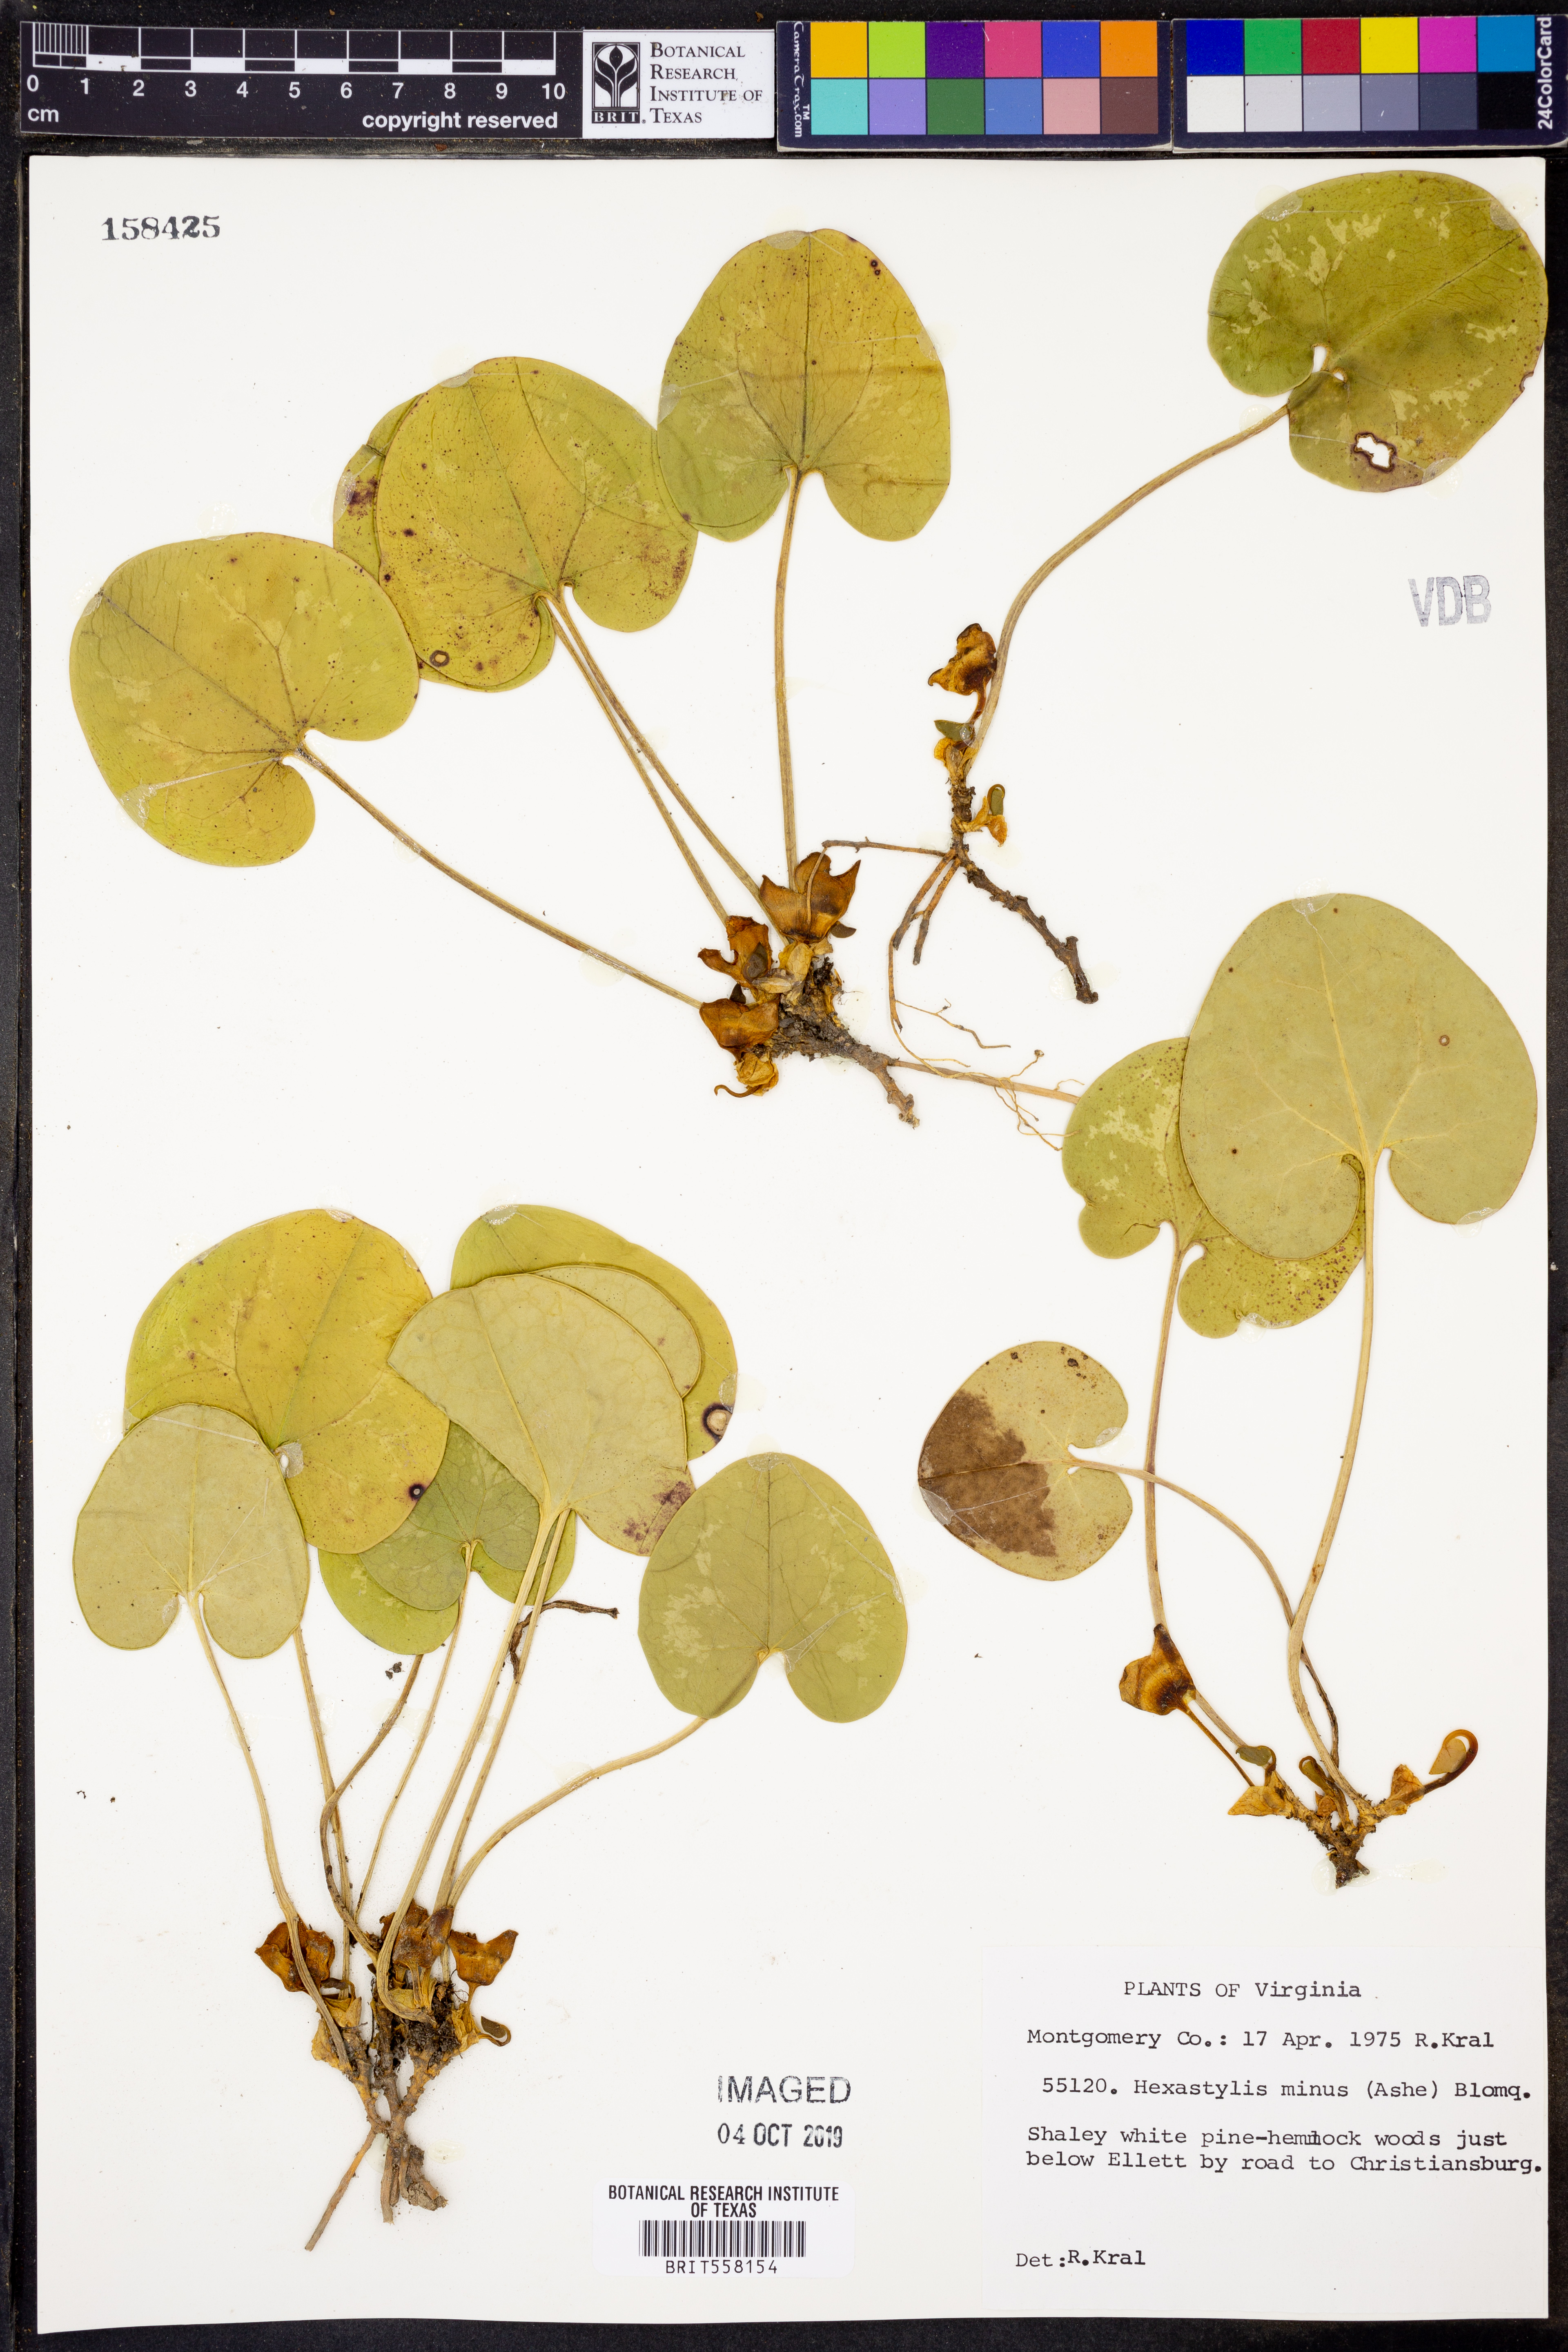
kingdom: Plantae
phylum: Tracheophyta
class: Magnoliopsida
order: Piperales
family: Aristolochiaceae
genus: Hexastylis
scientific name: Hexastylis minor
